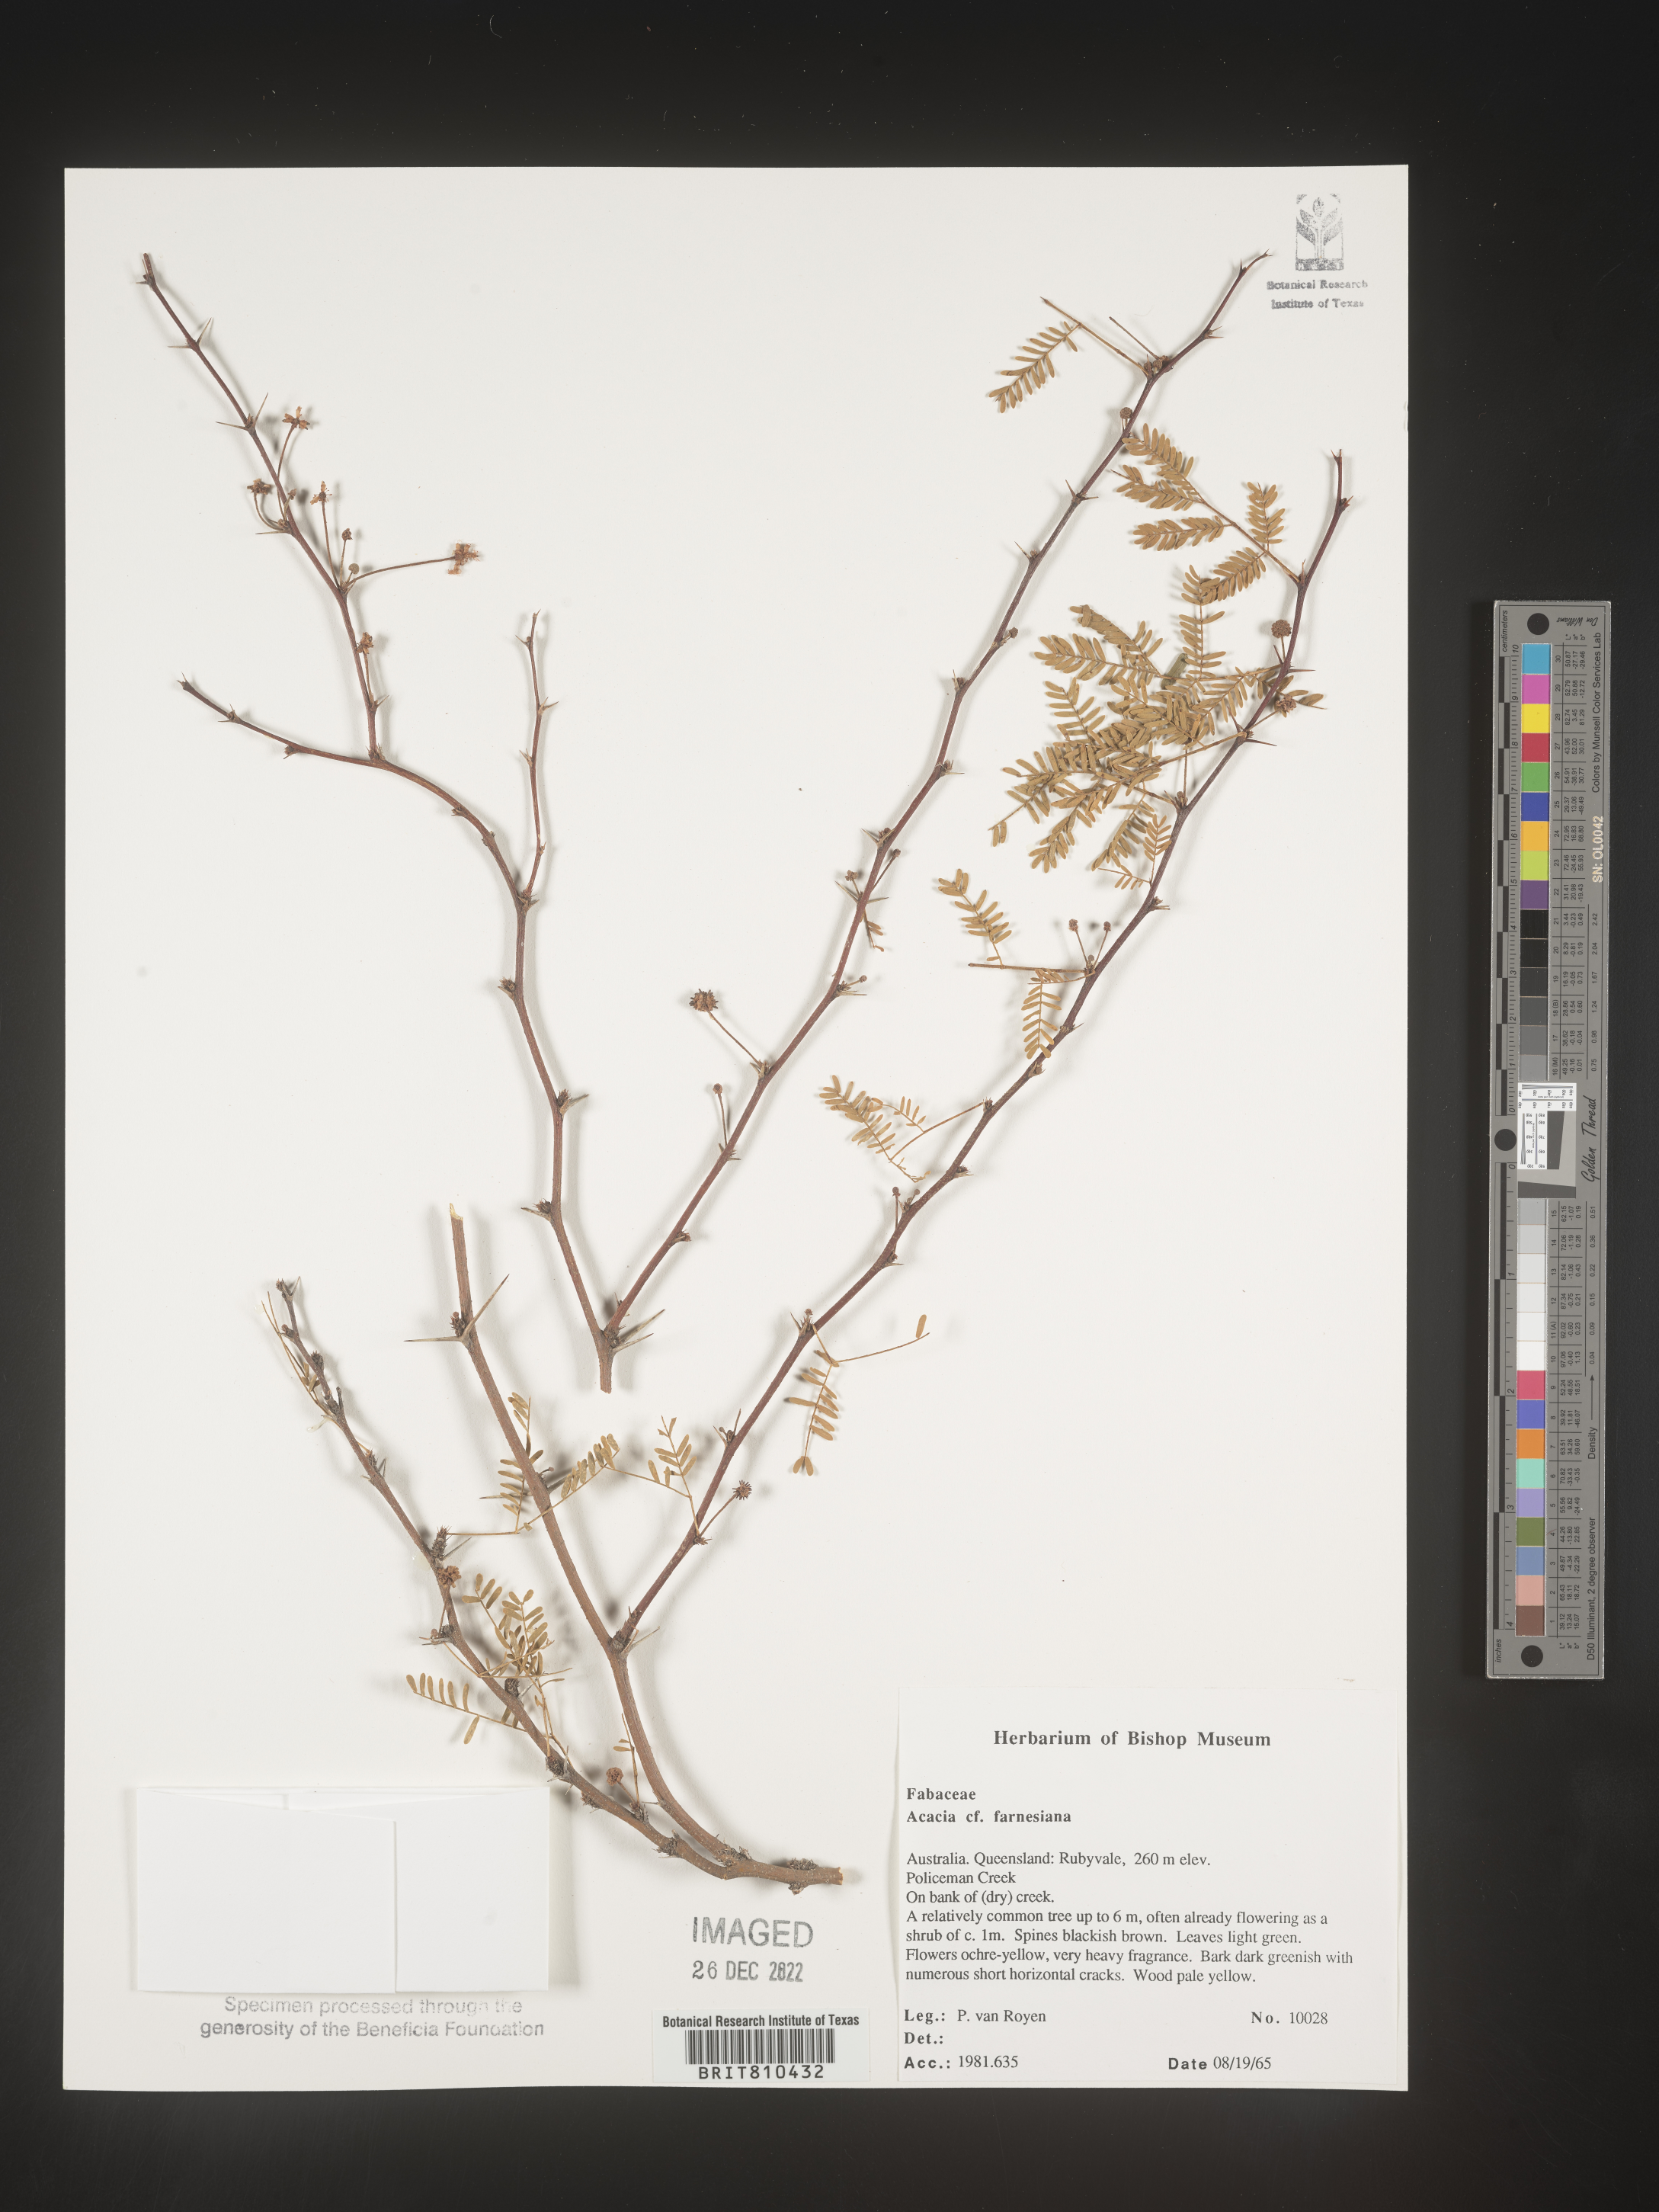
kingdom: Plantae
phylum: Tracheophyta
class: Magnoliopsida
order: Fabales
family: Fabaceae
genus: Acacia
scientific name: Acacia
